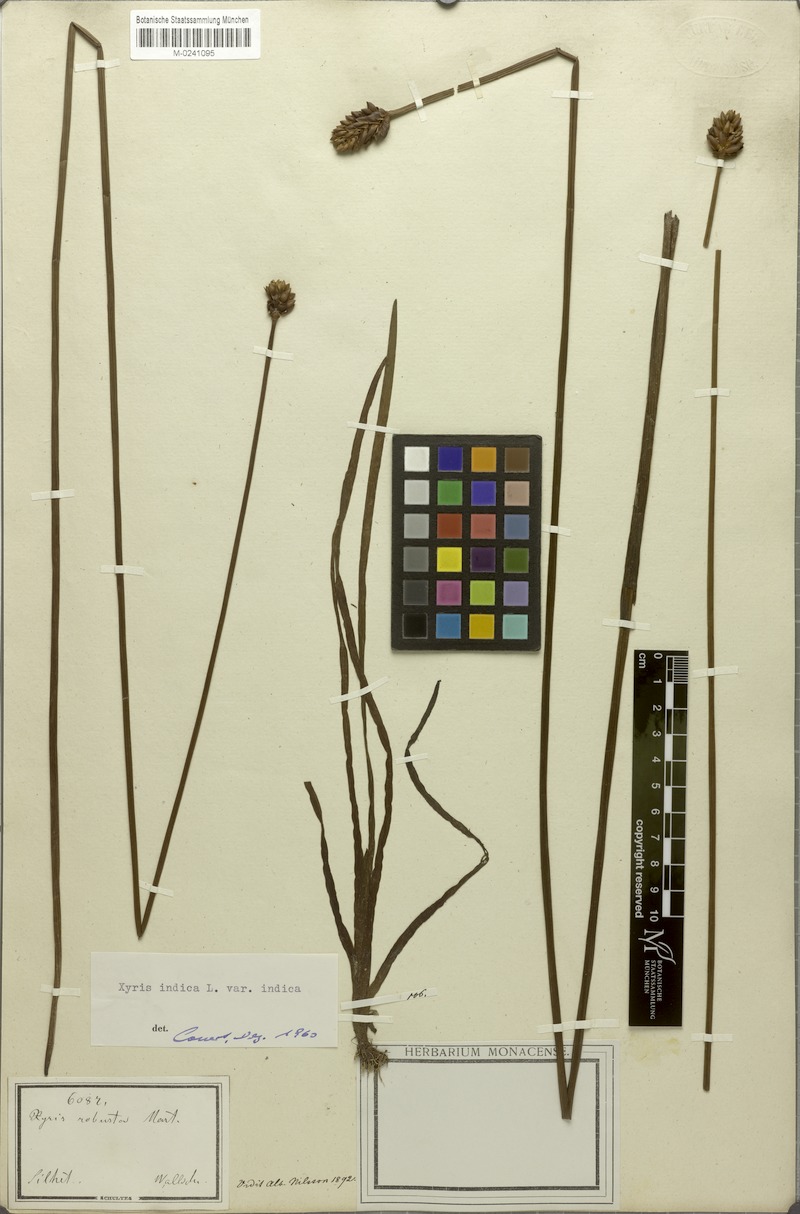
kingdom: Plantae
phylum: Tracheophyta
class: Liliopsida
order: Poales
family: Xyridaceae
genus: Xyris
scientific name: Xyris indica
